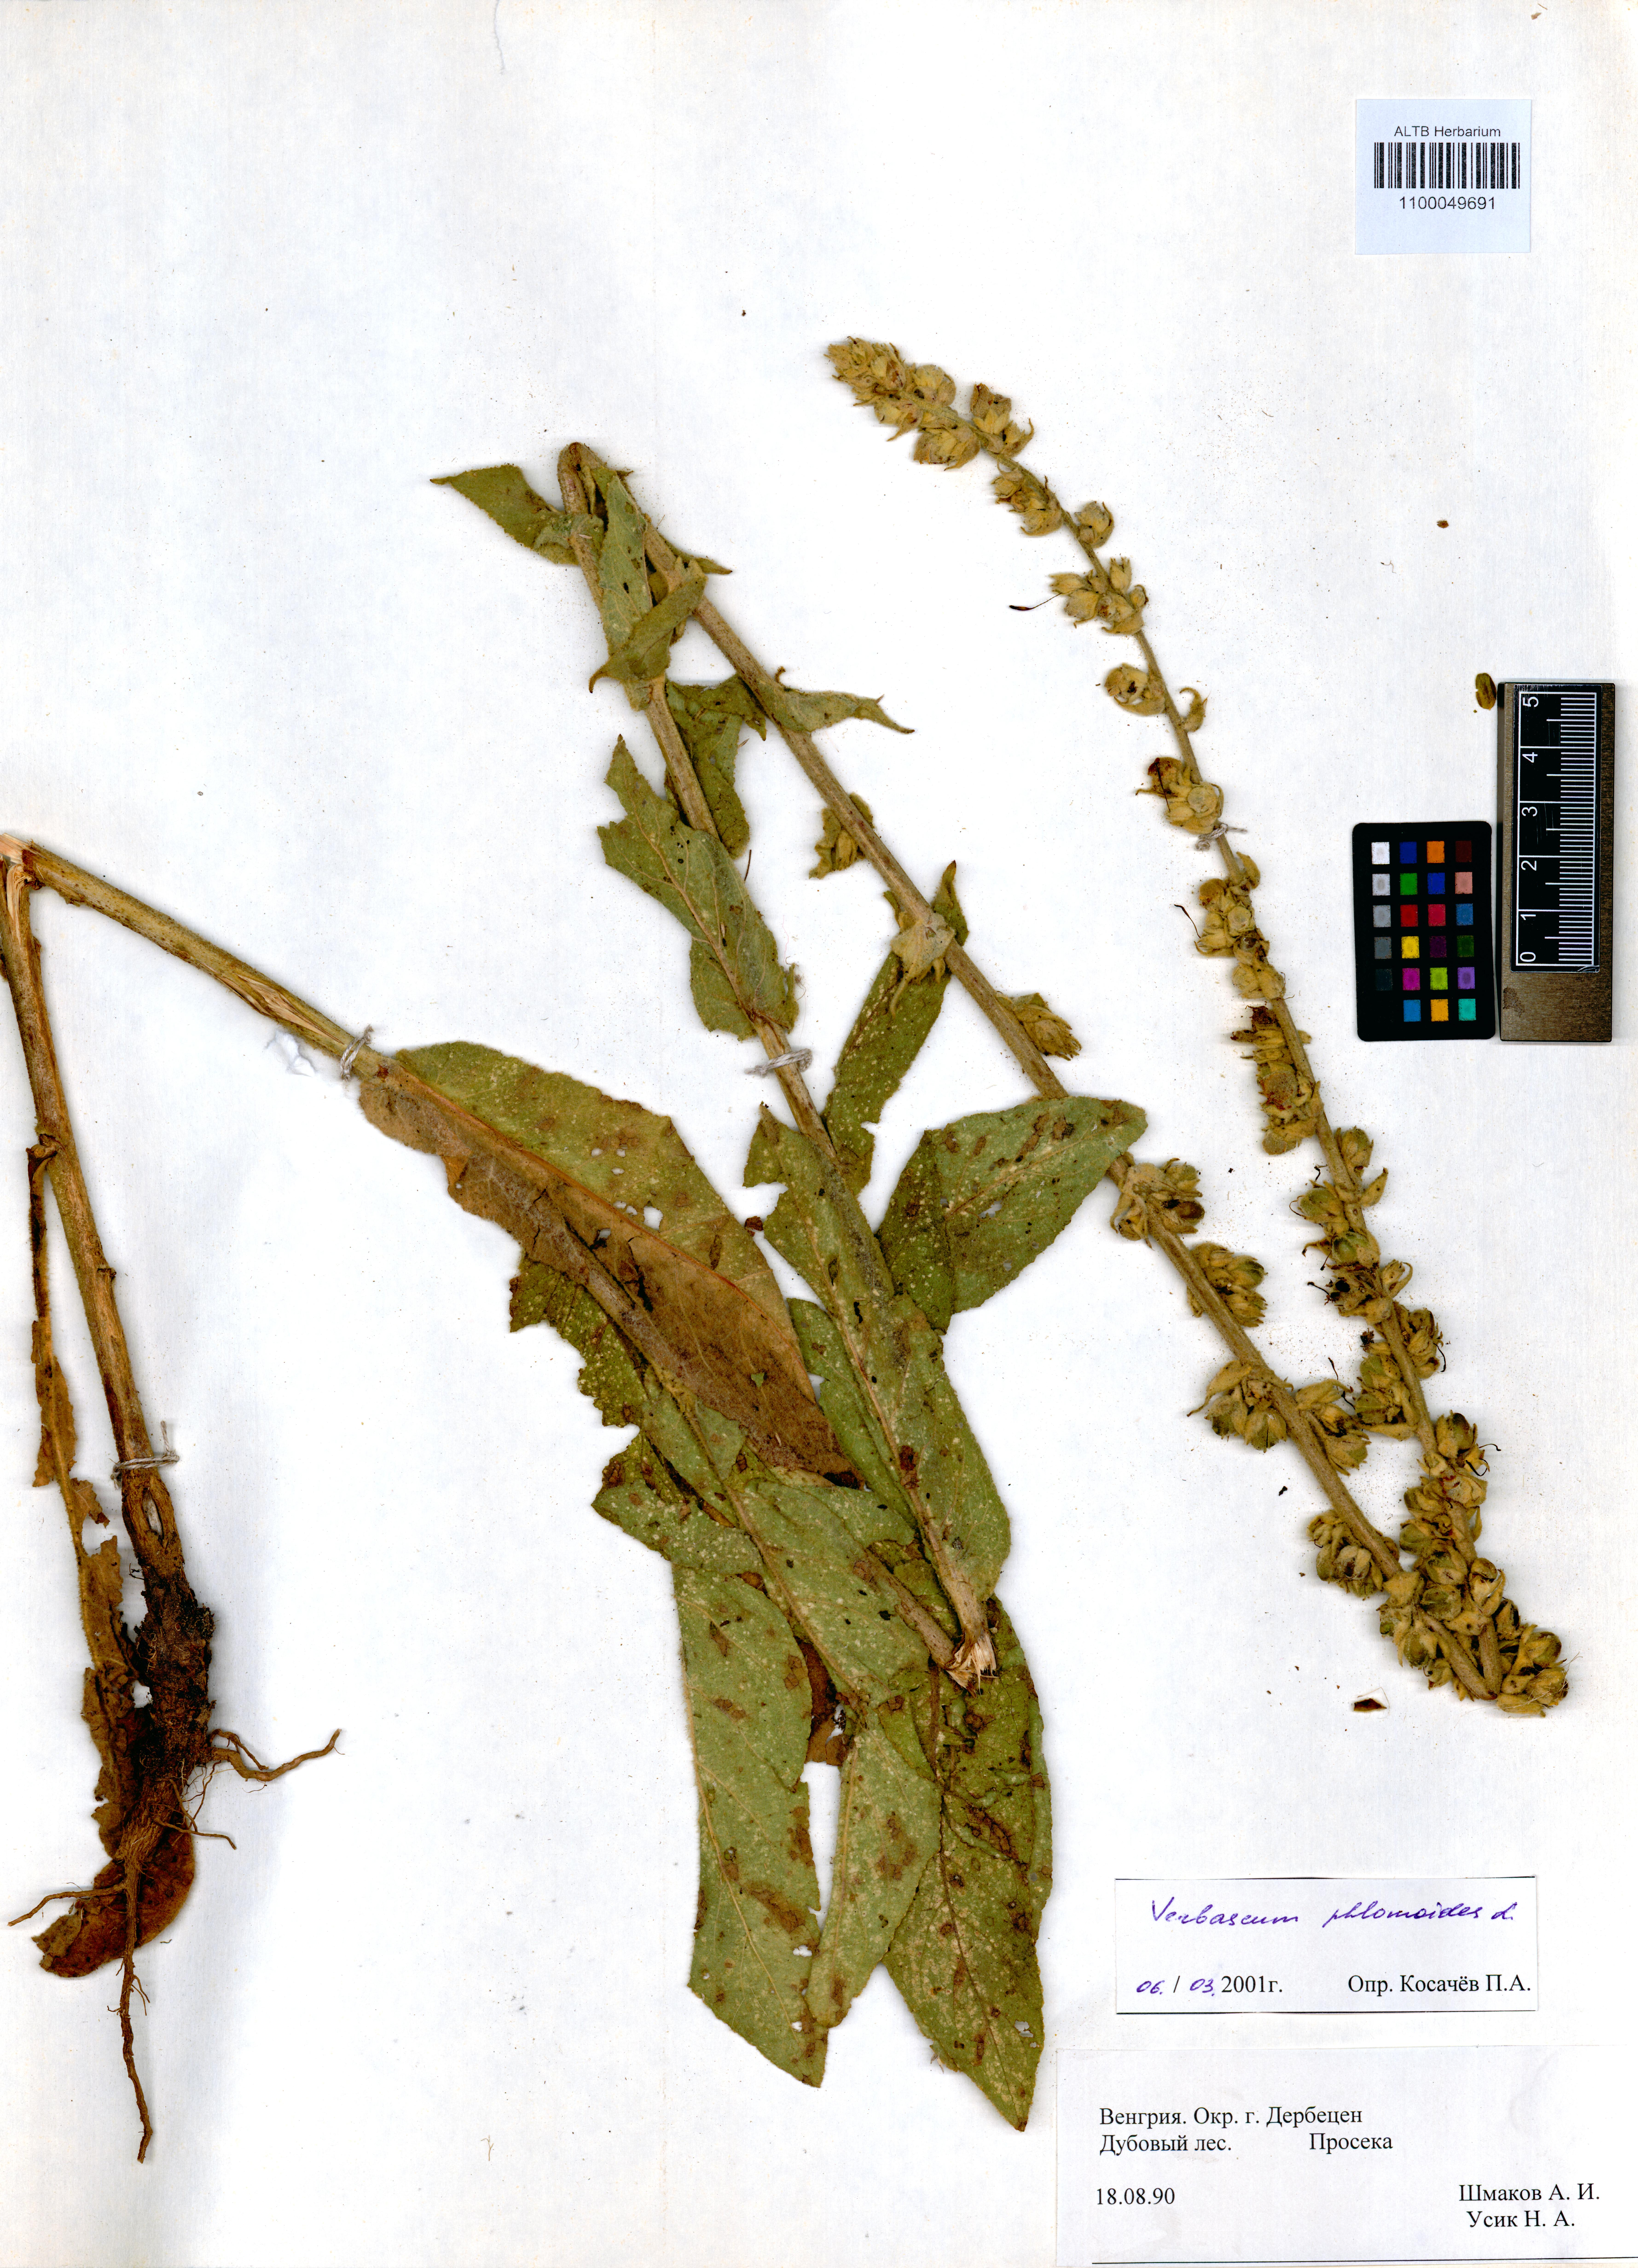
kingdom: Plantae
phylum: Tracheophyta
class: Magnoliopsida
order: Lamiales
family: Scrophulariaceae
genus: Verbascum
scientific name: Verbascum phlomoides
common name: Orange mullein
